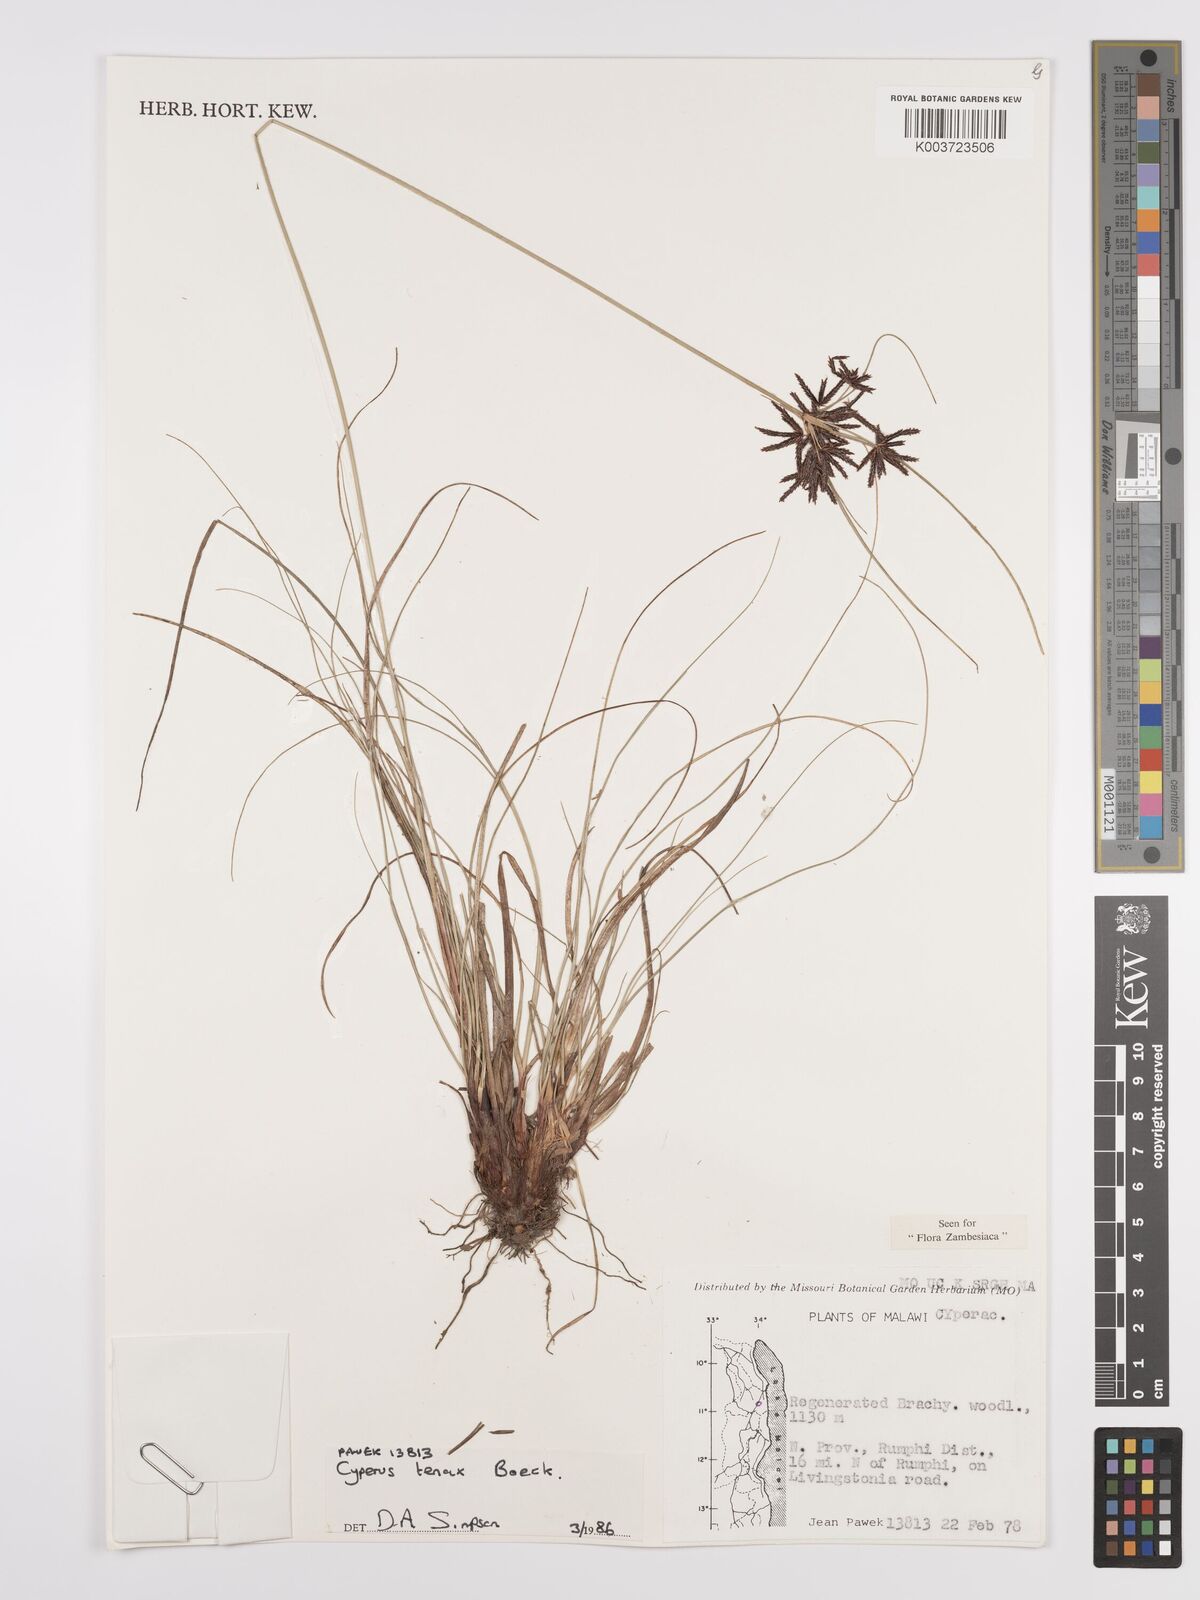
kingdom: Plantae
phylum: Tracheophyta
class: Liliopsida
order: Poales
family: Cyperaceae
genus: Cyperus
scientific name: Cyperus tenax
